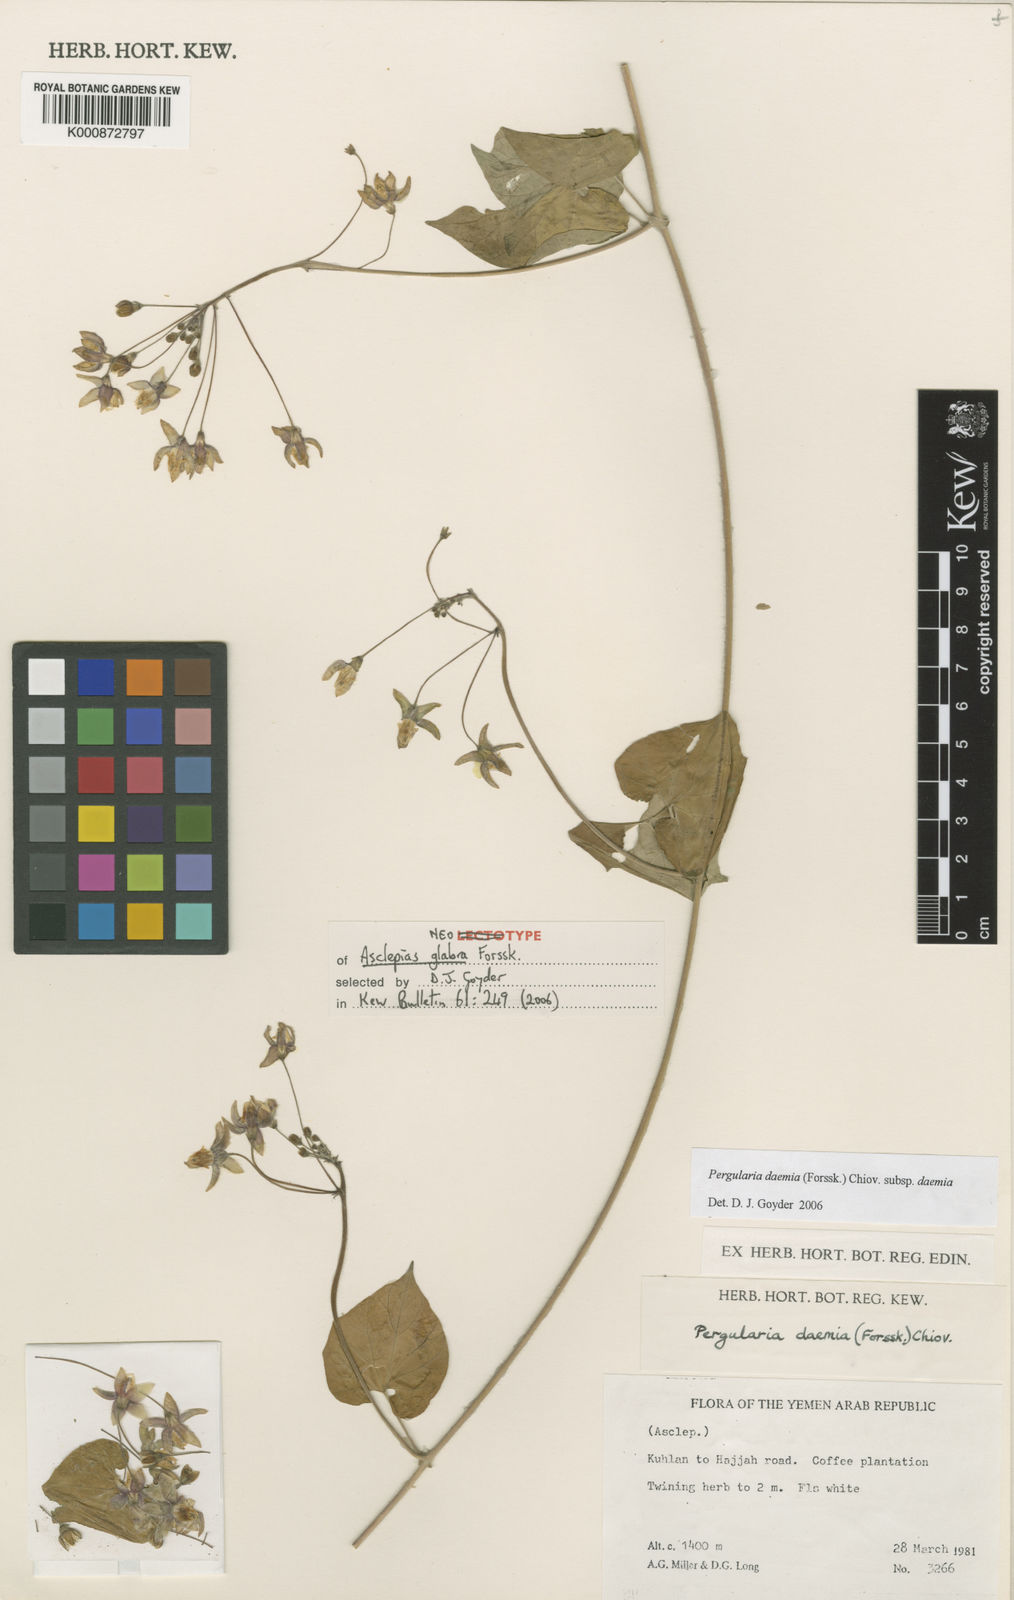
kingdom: Plantae
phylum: Tracheophyta
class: Magnoliopsida
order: Gentianales
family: Apocynaceae
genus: Pergularia
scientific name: Pergularia daemia
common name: Trellis-vine
